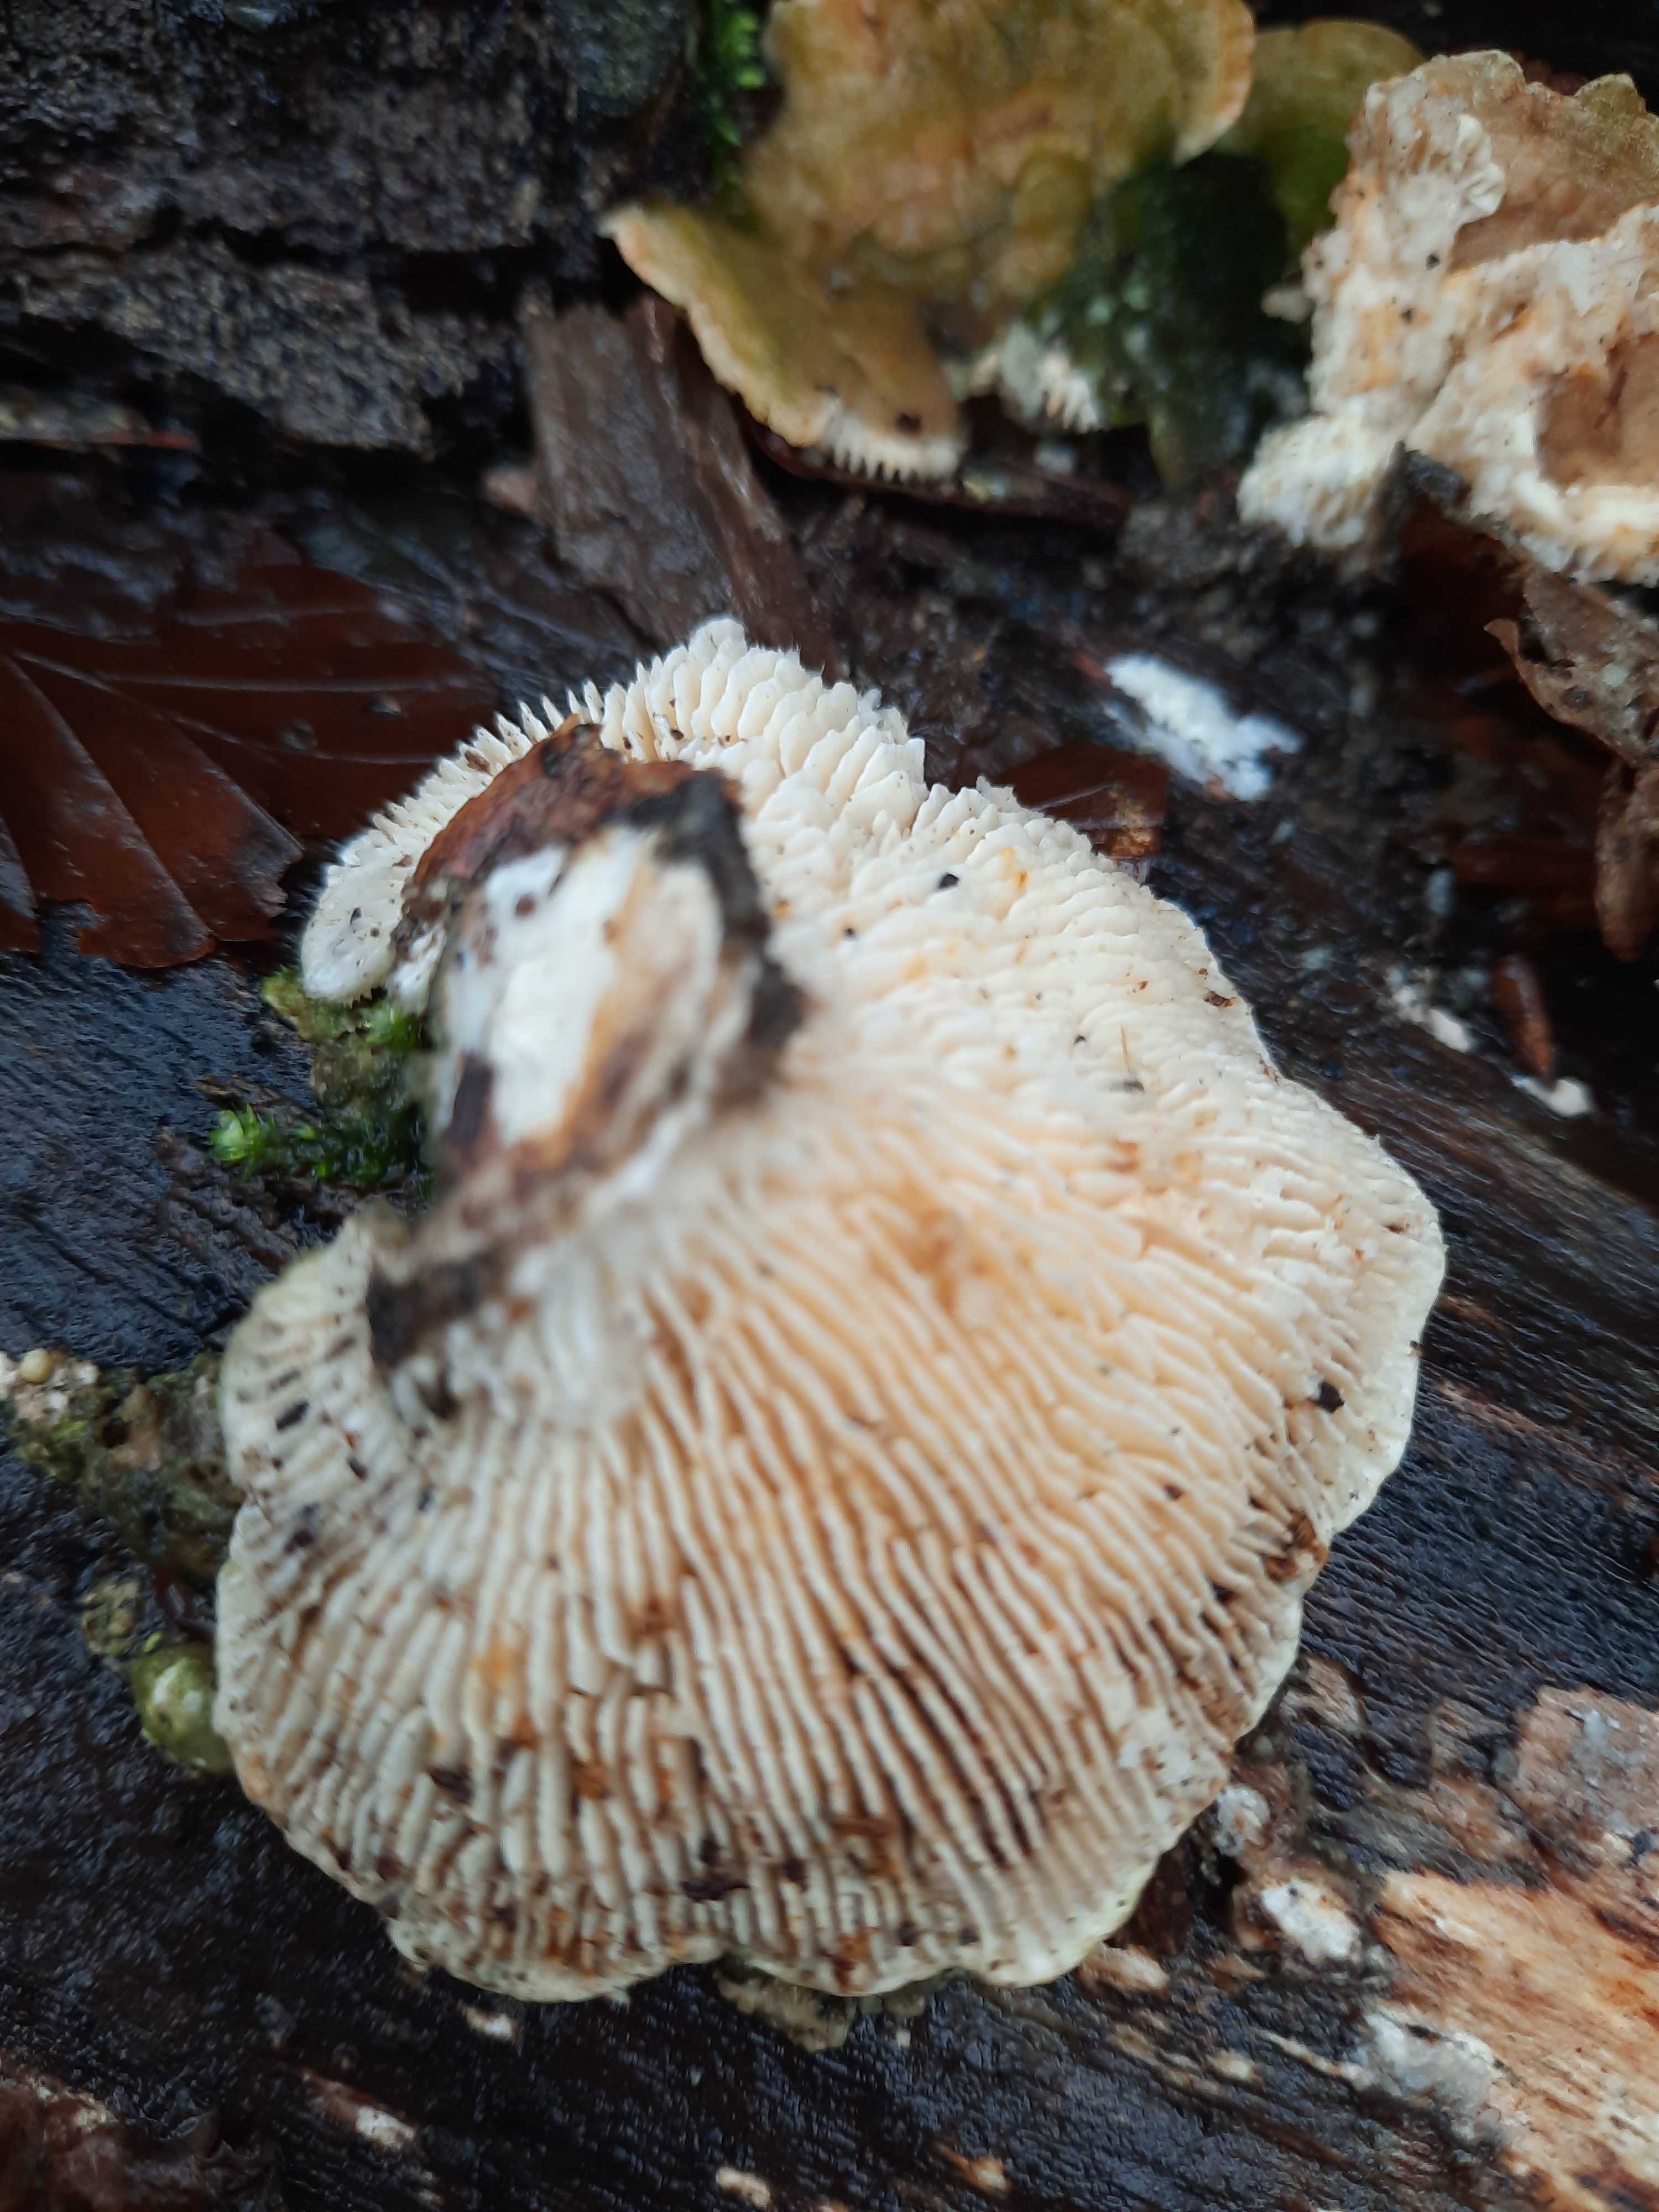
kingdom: Fungi
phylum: Basidiomycota
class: Agaricomycetes
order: Polyporales
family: Polyporaceae
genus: Lenzites
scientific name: Lenzites betulinus
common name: birke-læderporesvamp
